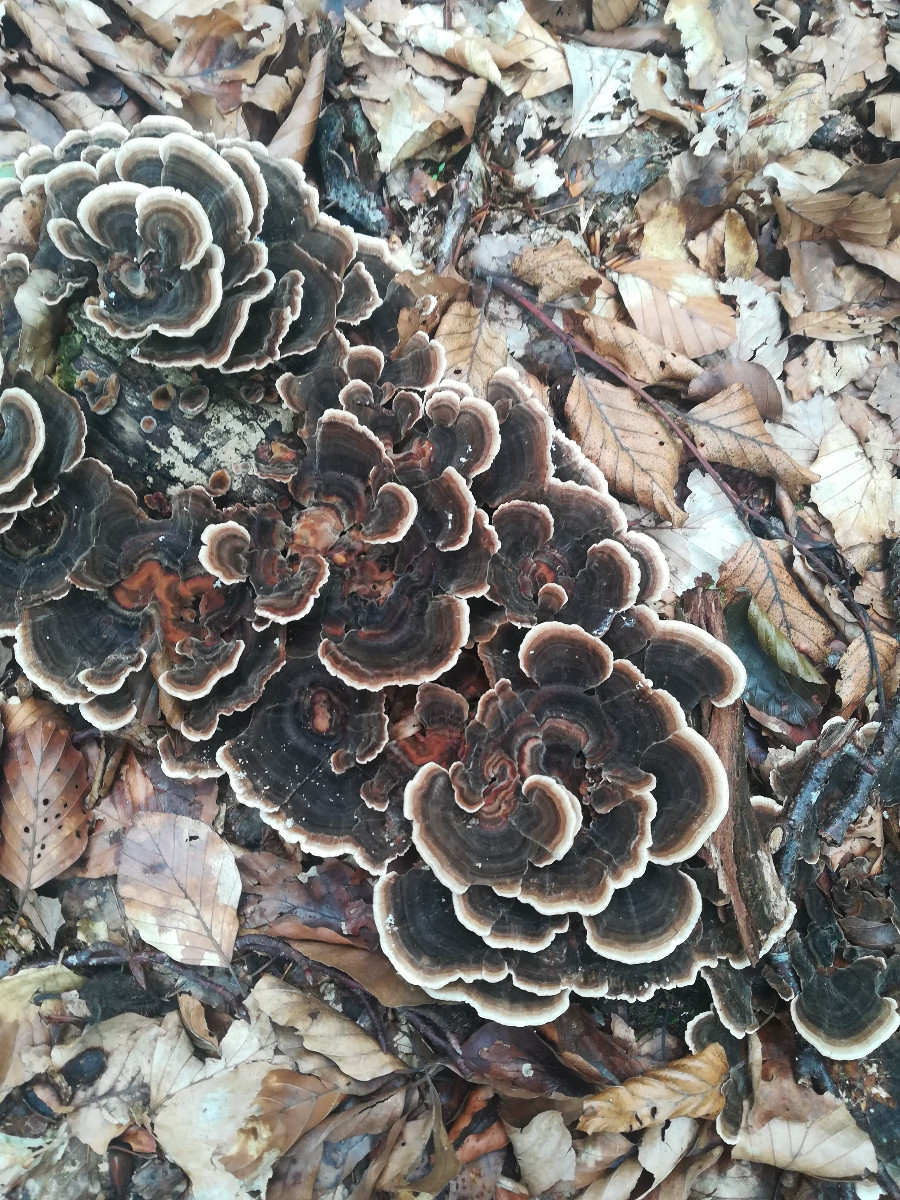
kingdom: Fungi
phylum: Basidiomycota
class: Agaricomycetes
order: Polyporales
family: Polyporaceae
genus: Trametes
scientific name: Trametes versicolor
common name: broget læderporesvamp
